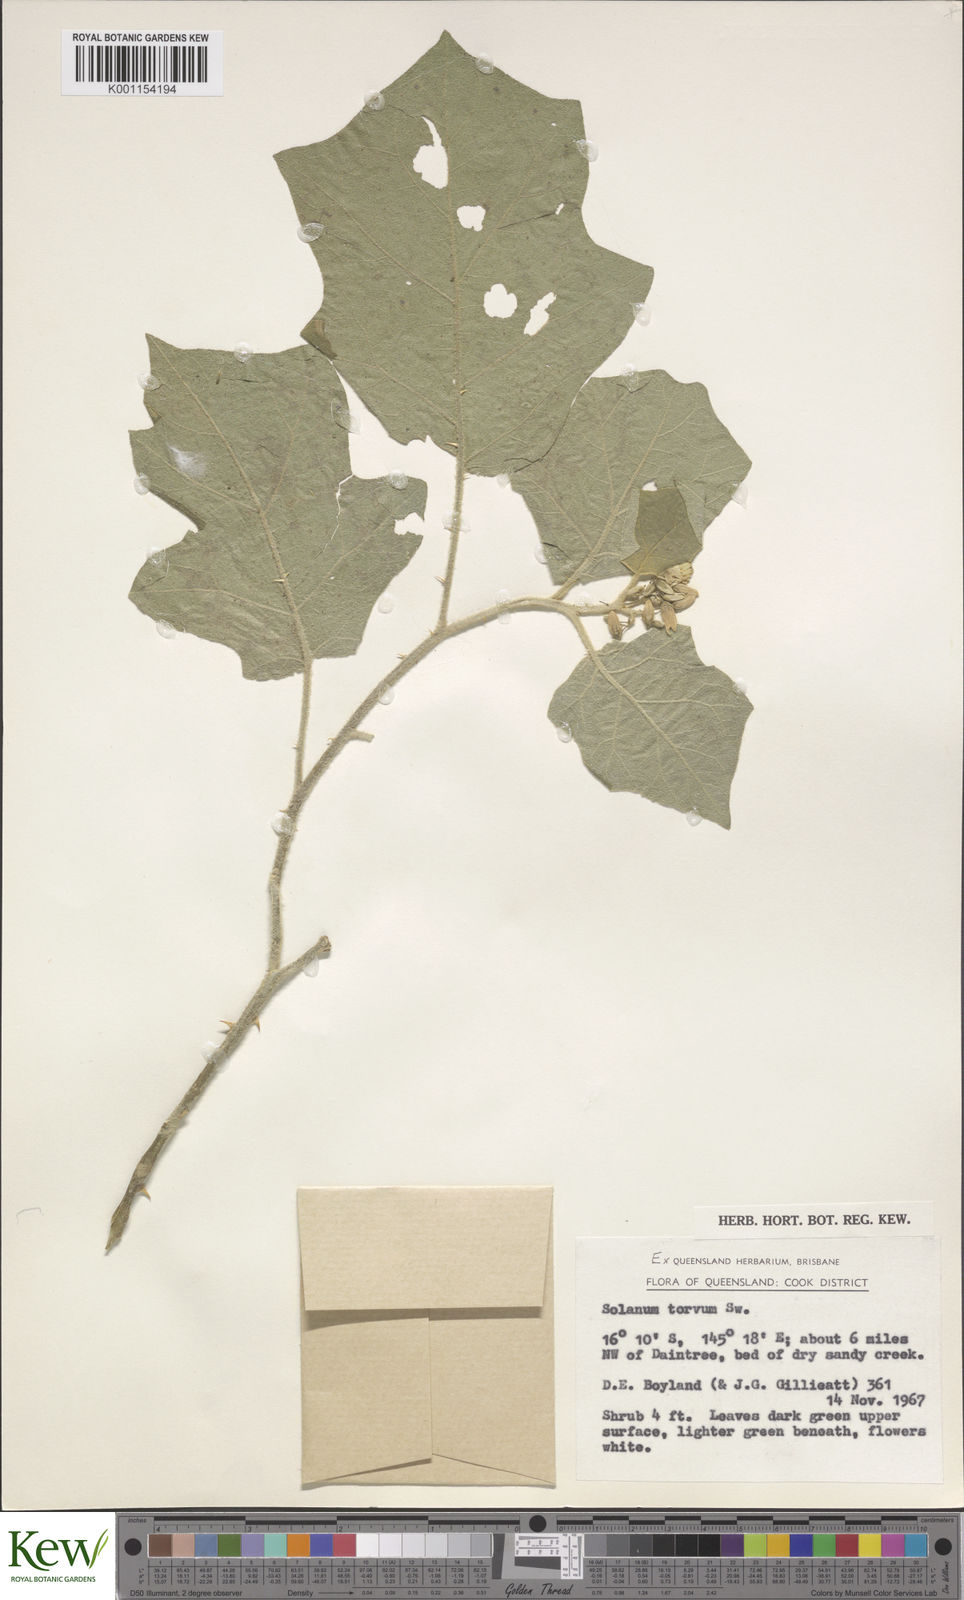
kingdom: Plantae
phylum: Tracheophyta
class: Magnoliopsida
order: Solanales
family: Solanaceae
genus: Solanum
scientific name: Solanum torvum
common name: Turkey berry
